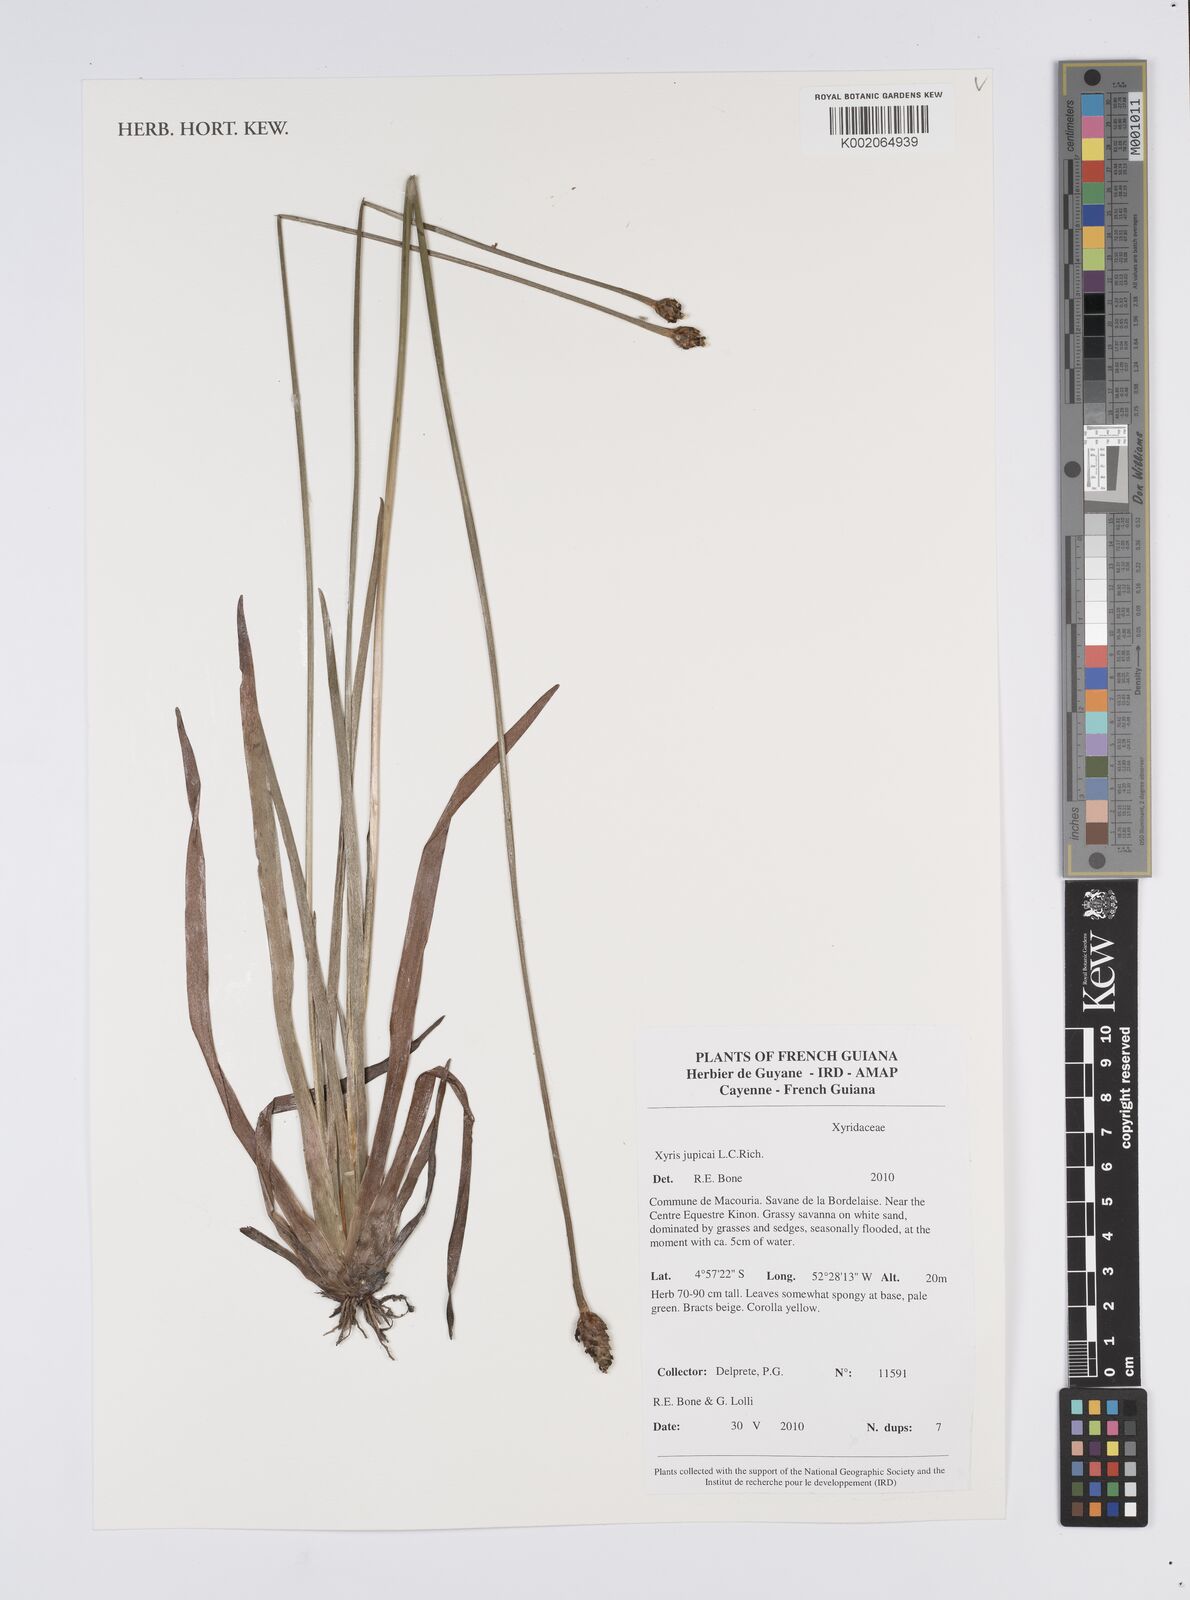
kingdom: Plantae
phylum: Tracheophyta
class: Liliopsida
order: Poales
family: Xyridaceae
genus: Xyris
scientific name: Xyris jupicai
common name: Richard's yelloweyed grass
